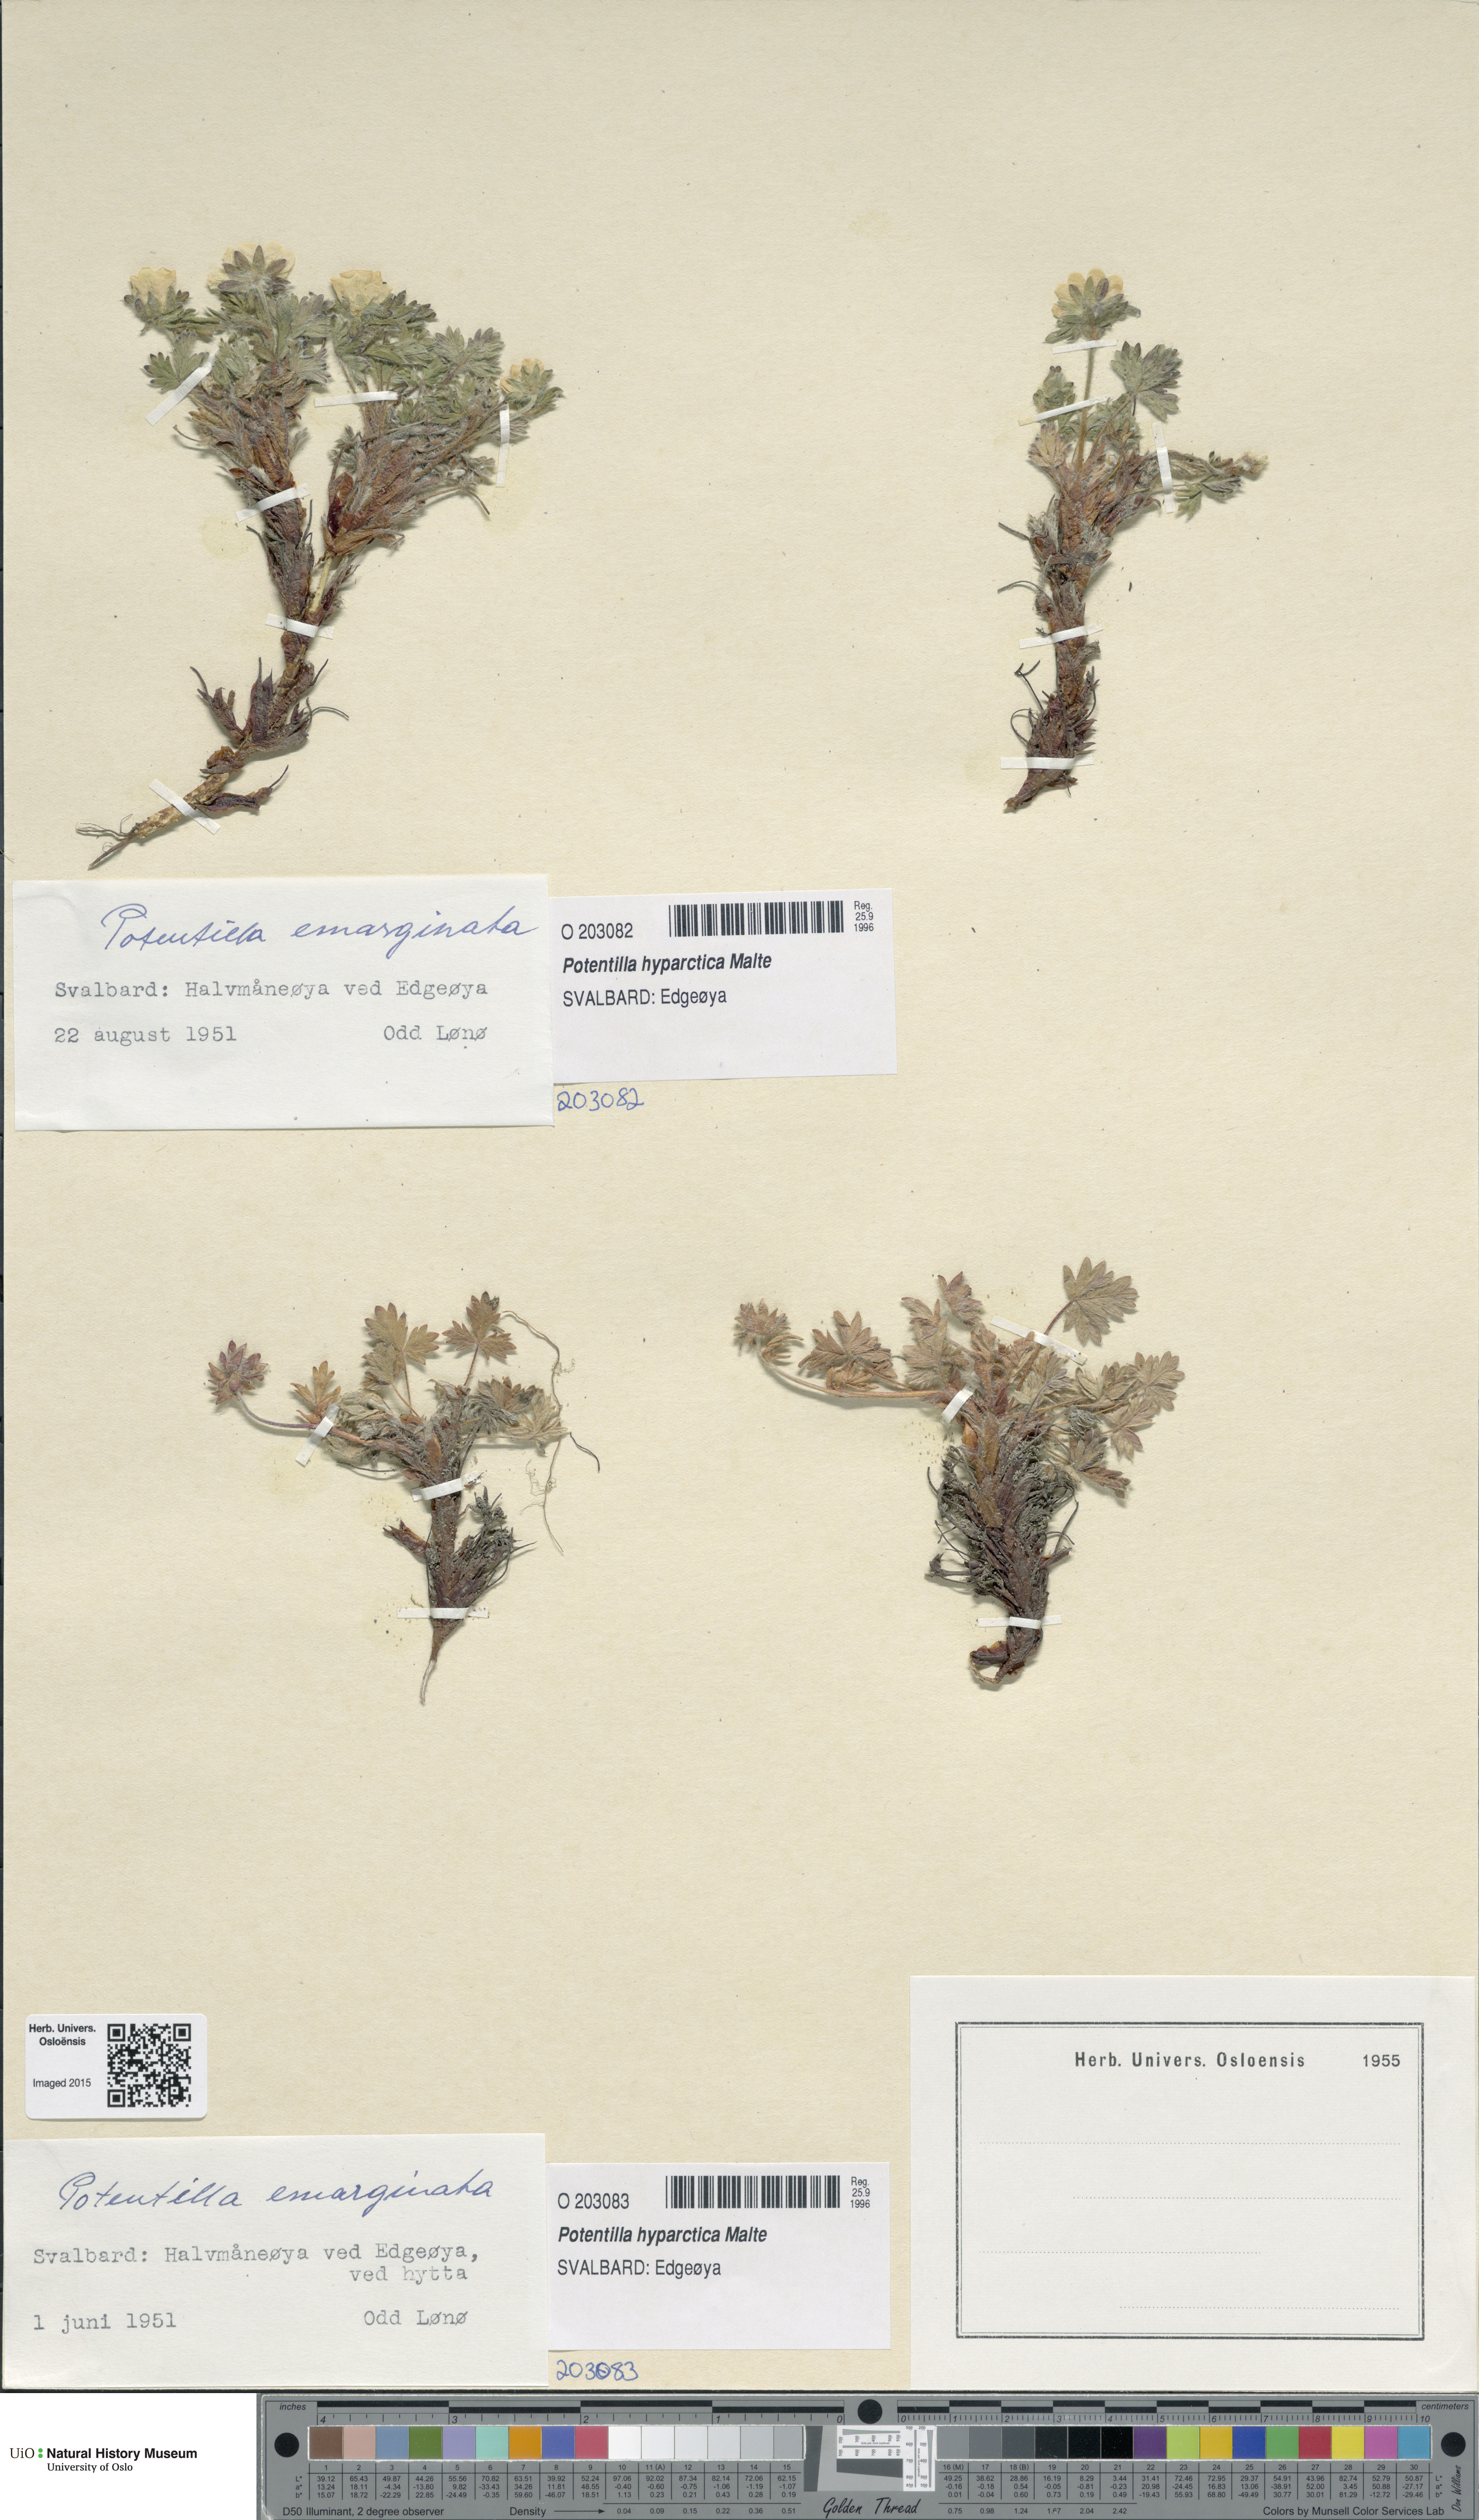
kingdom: Plantae
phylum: Tracheophyta
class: Magnoliopsida
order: Rosales
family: Rosaceae
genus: Potentilla
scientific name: Potentilla hyparctica
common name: Arctic cinquefoil
